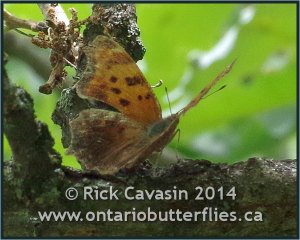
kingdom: Animalia
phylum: Arthropoda
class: Insecta
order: Lepidoptera
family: Nymphalidae
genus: Polygonia
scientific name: Polygonia comma
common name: Eastern Comma
